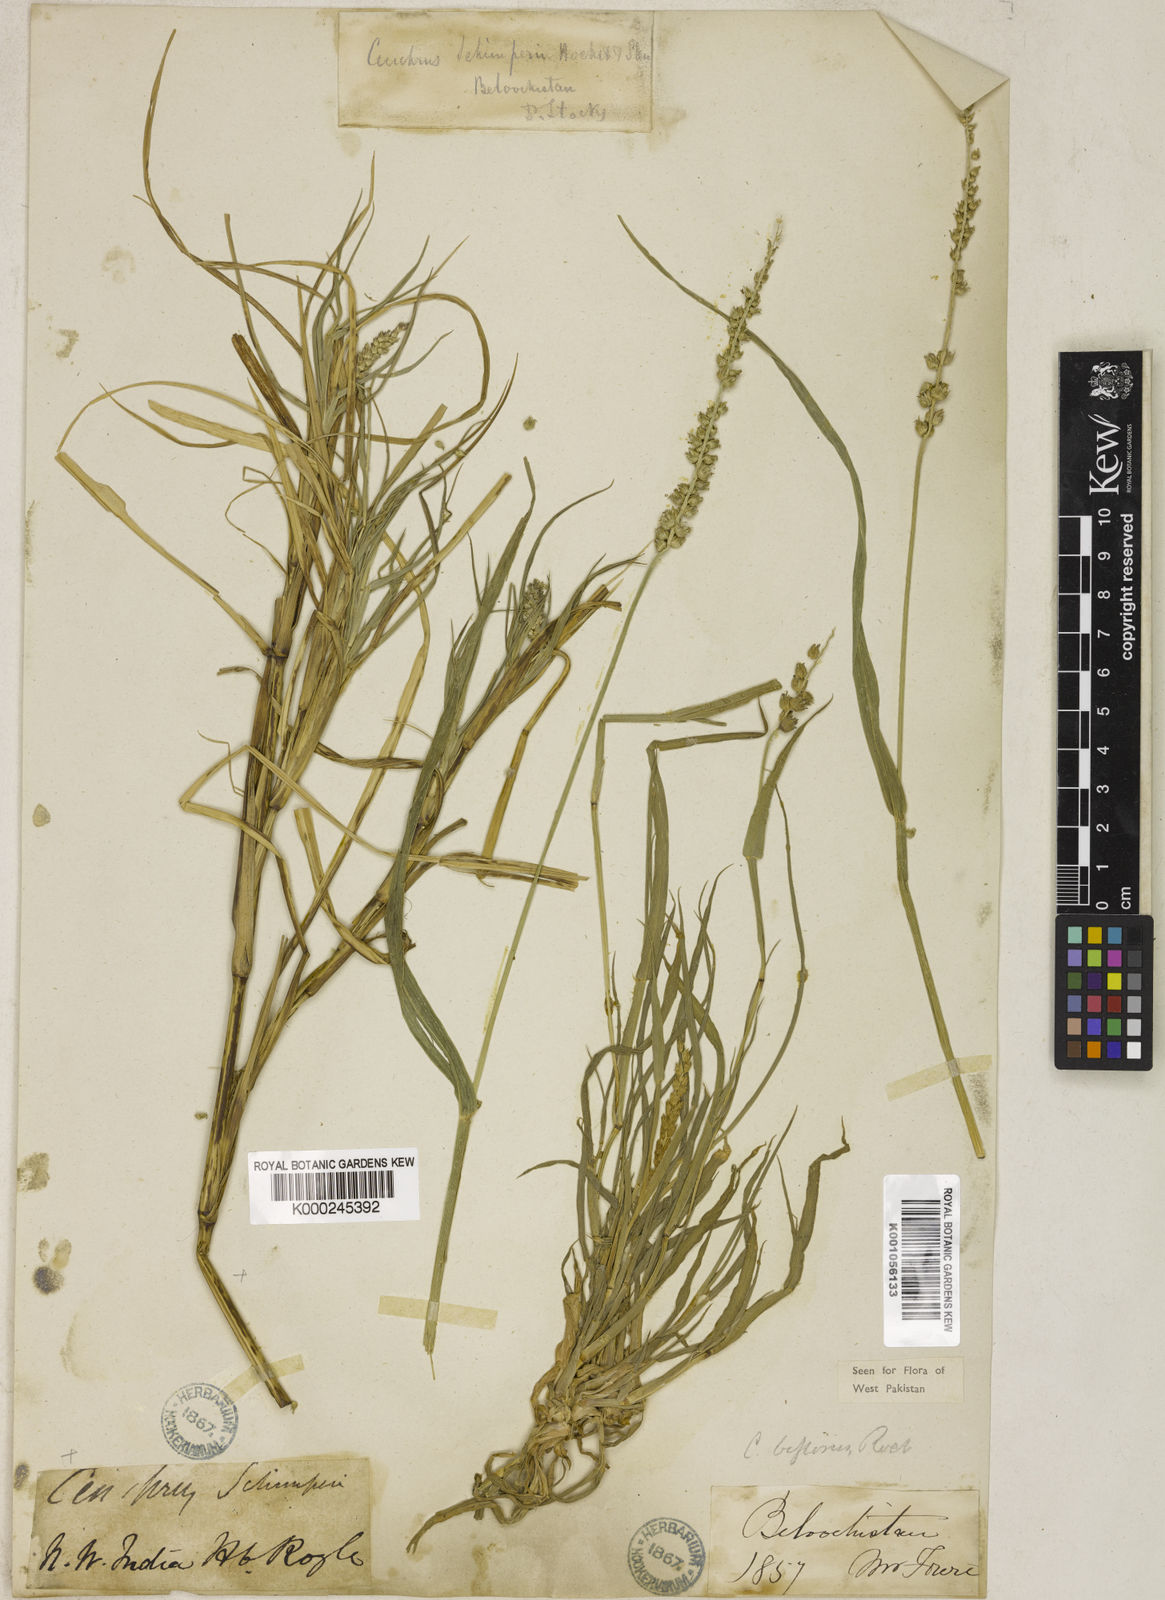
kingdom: Plantae
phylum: Tracheophyta
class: Liliopsida
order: Poales
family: Poaceae
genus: Cenchrus
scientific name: Cenchrus
